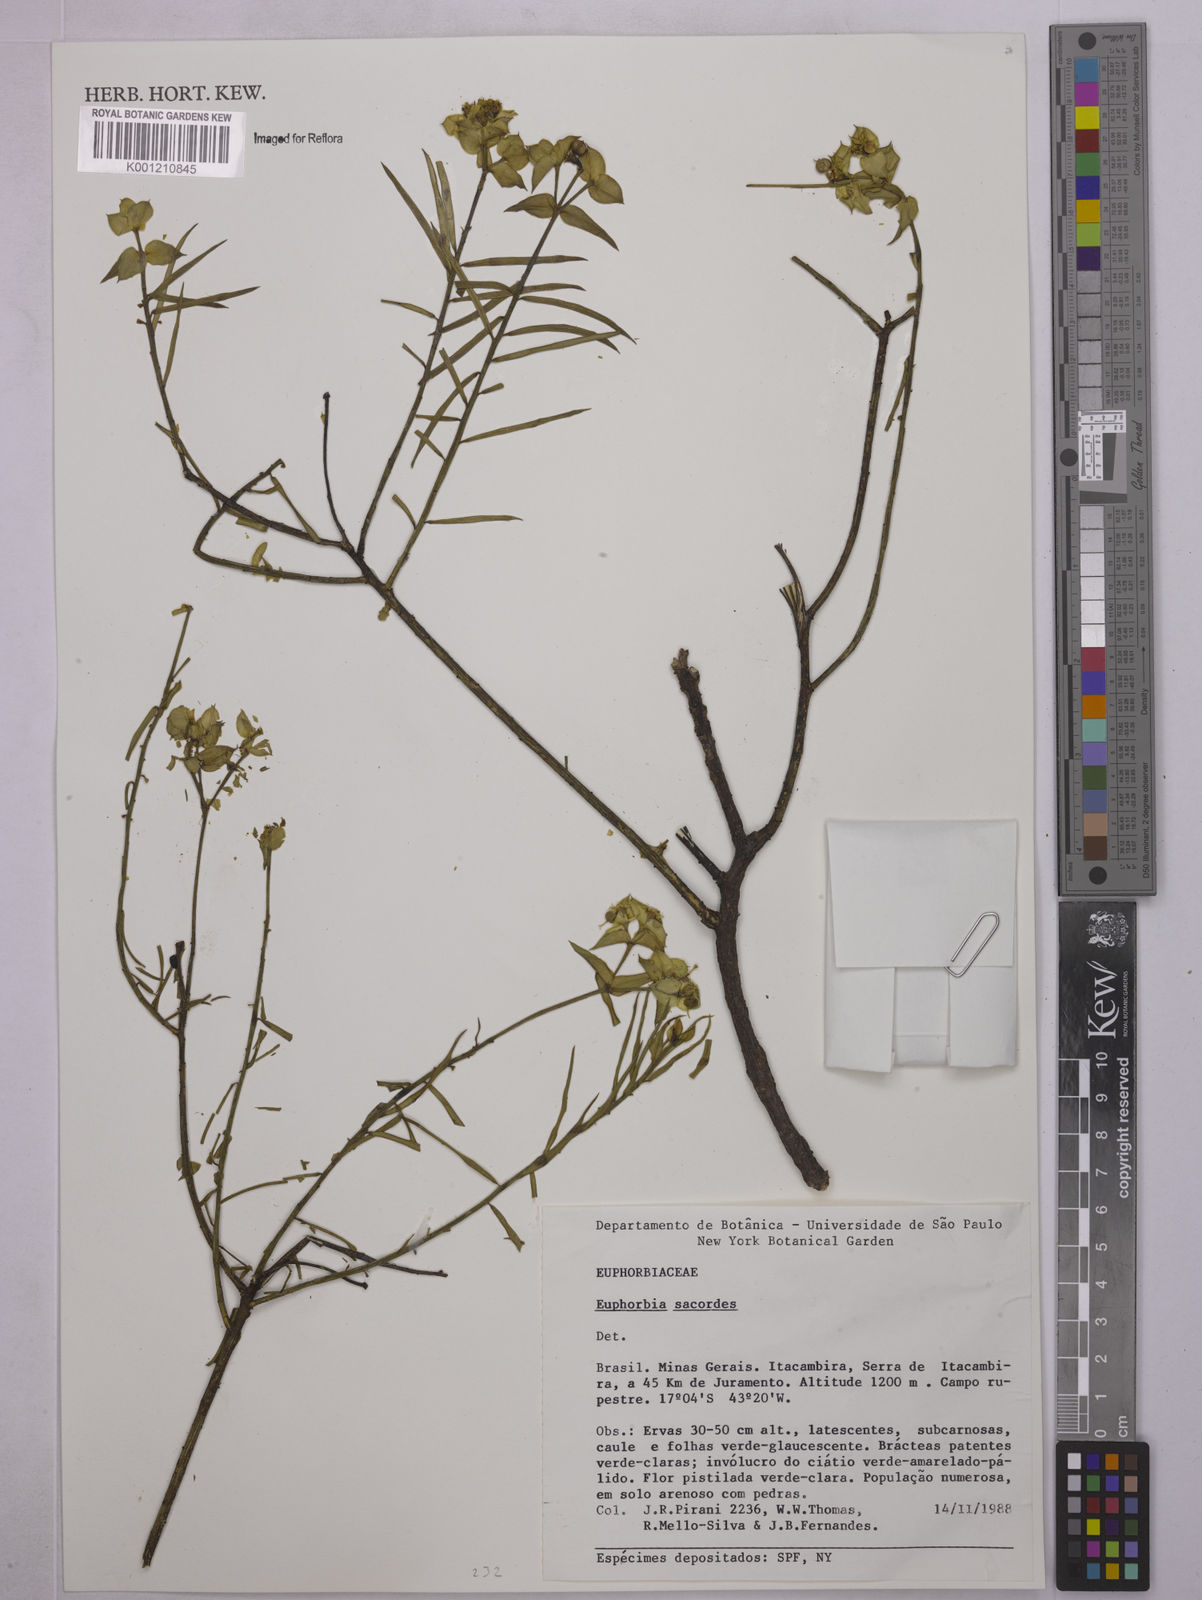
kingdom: Plantae
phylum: Tracheophyta
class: Magnoliopsida
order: Malpighiales
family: Euphorbiaceae
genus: Euphorbia
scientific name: Euphorbia sarcodes
